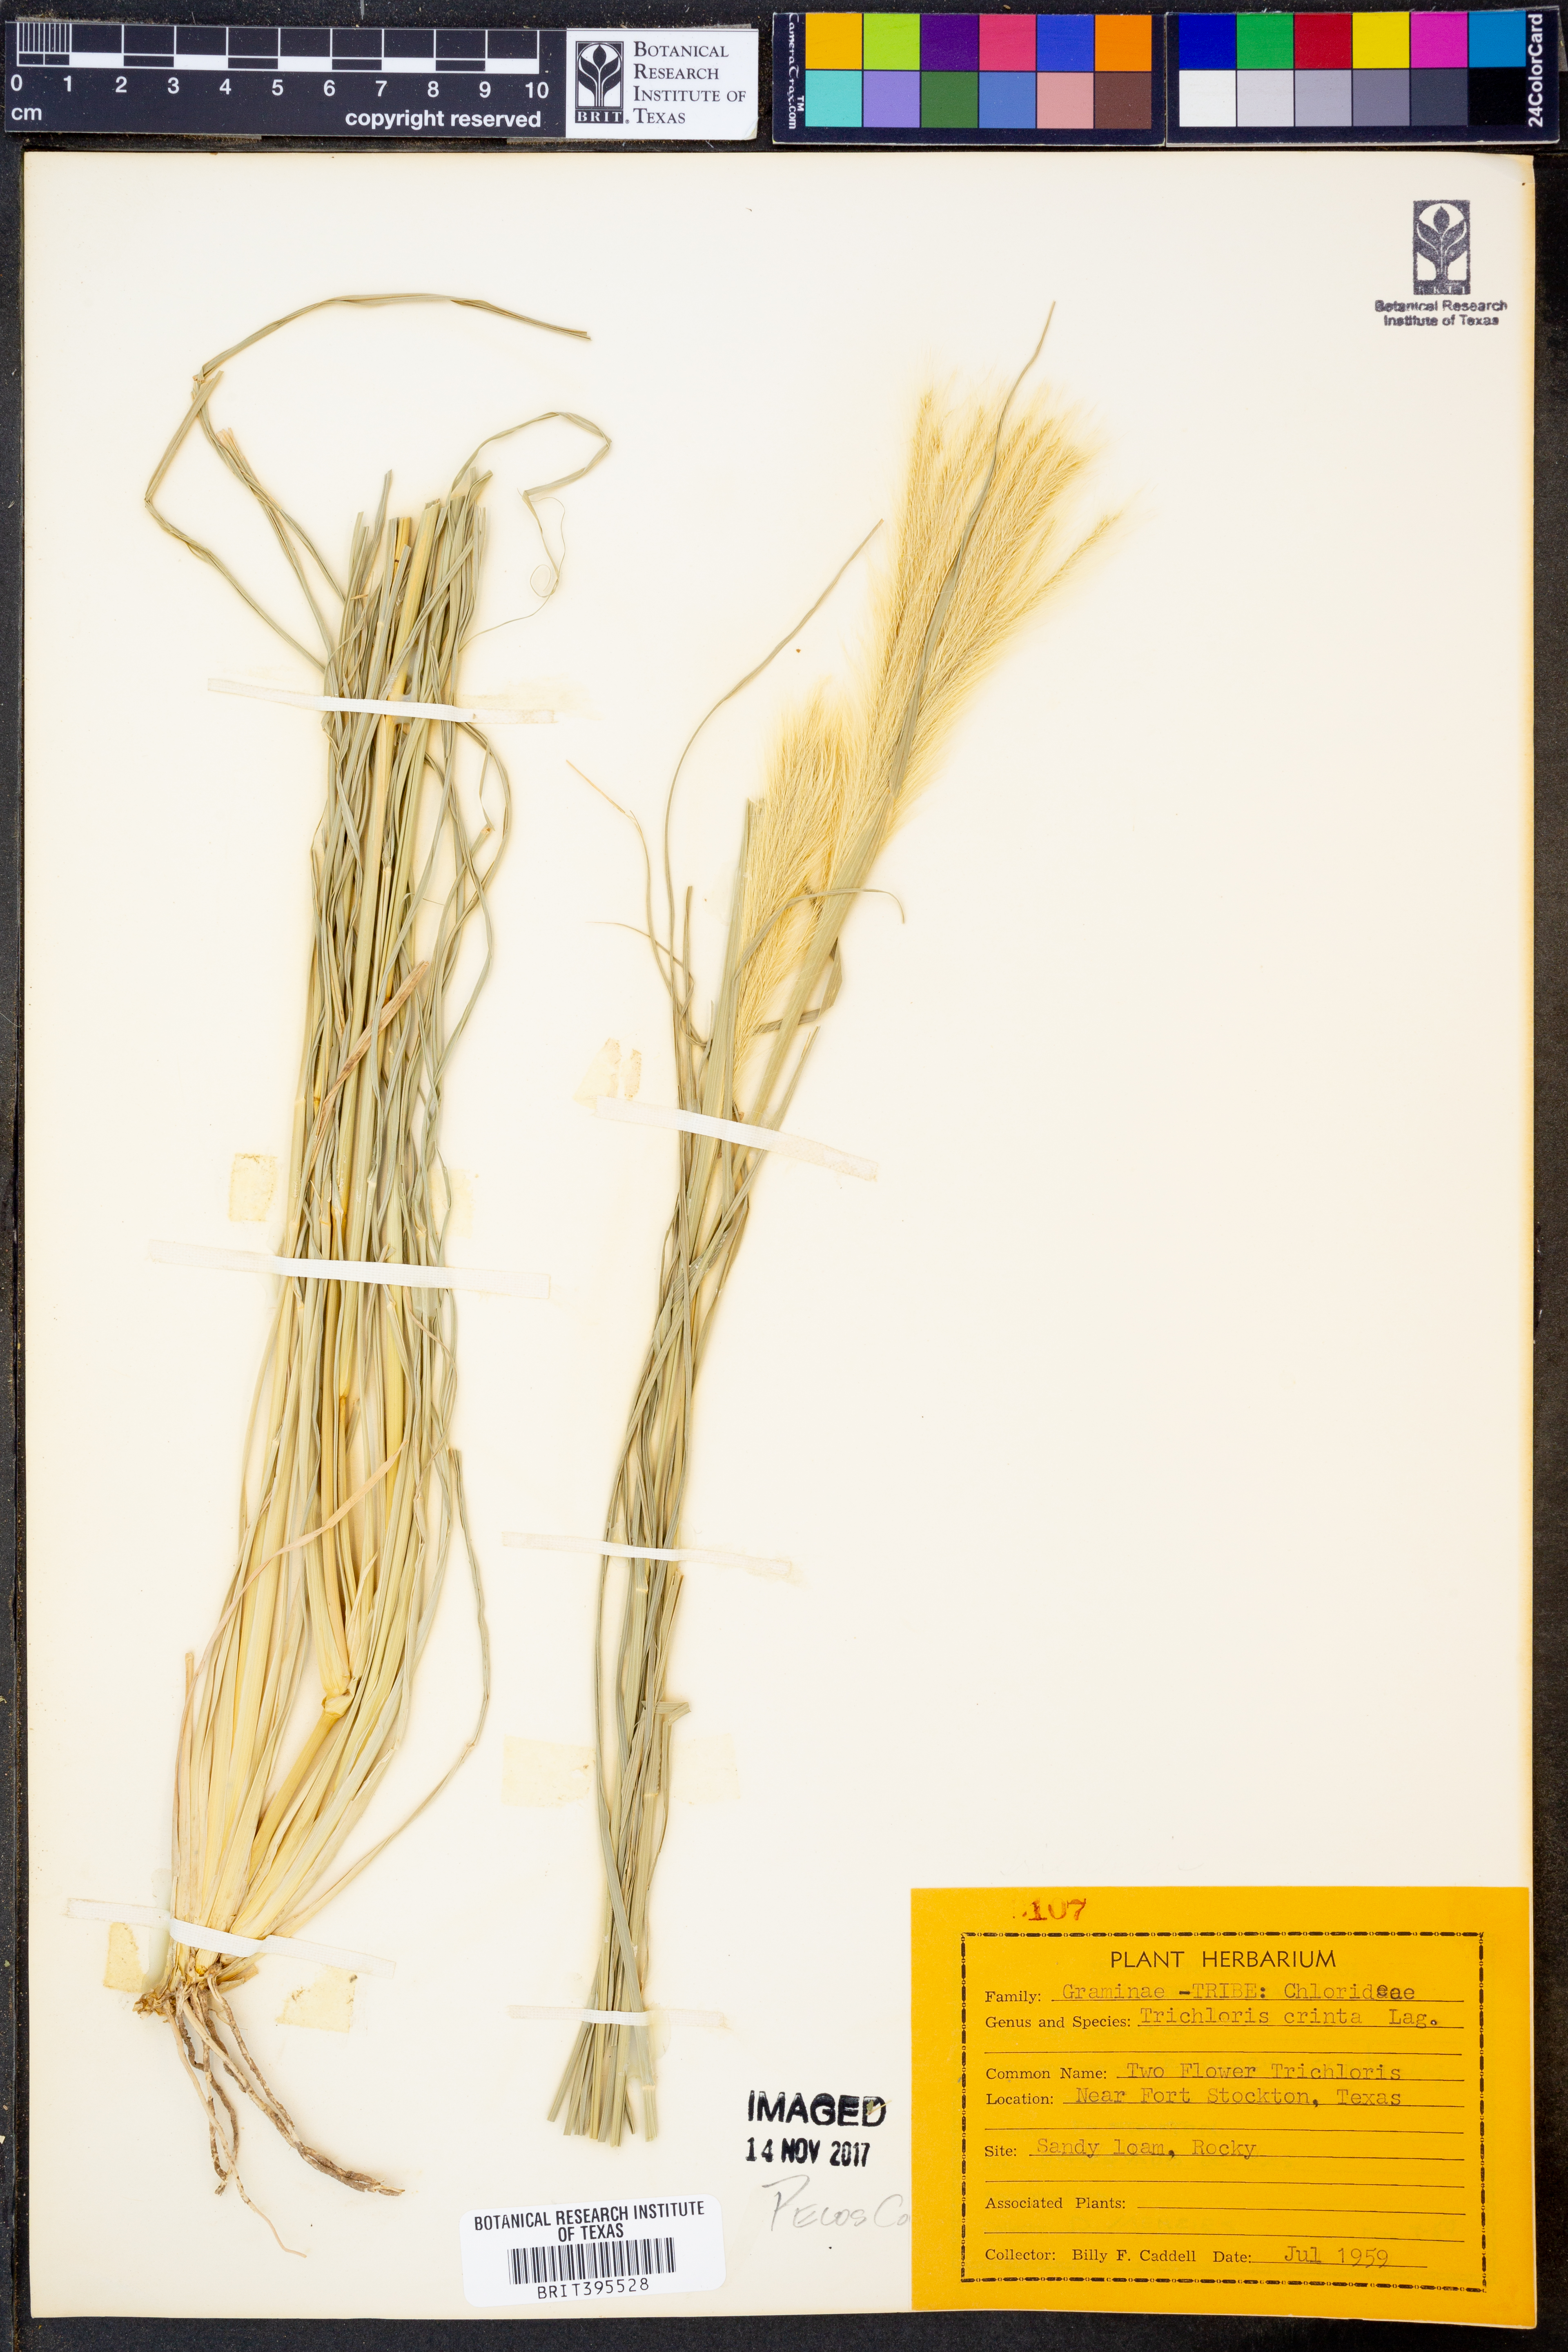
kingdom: Plantae
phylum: Tracheophyta
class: Liliopsida
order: Poales
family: Poaceae
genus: Leptochloa
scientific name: Leptochloa crinita
